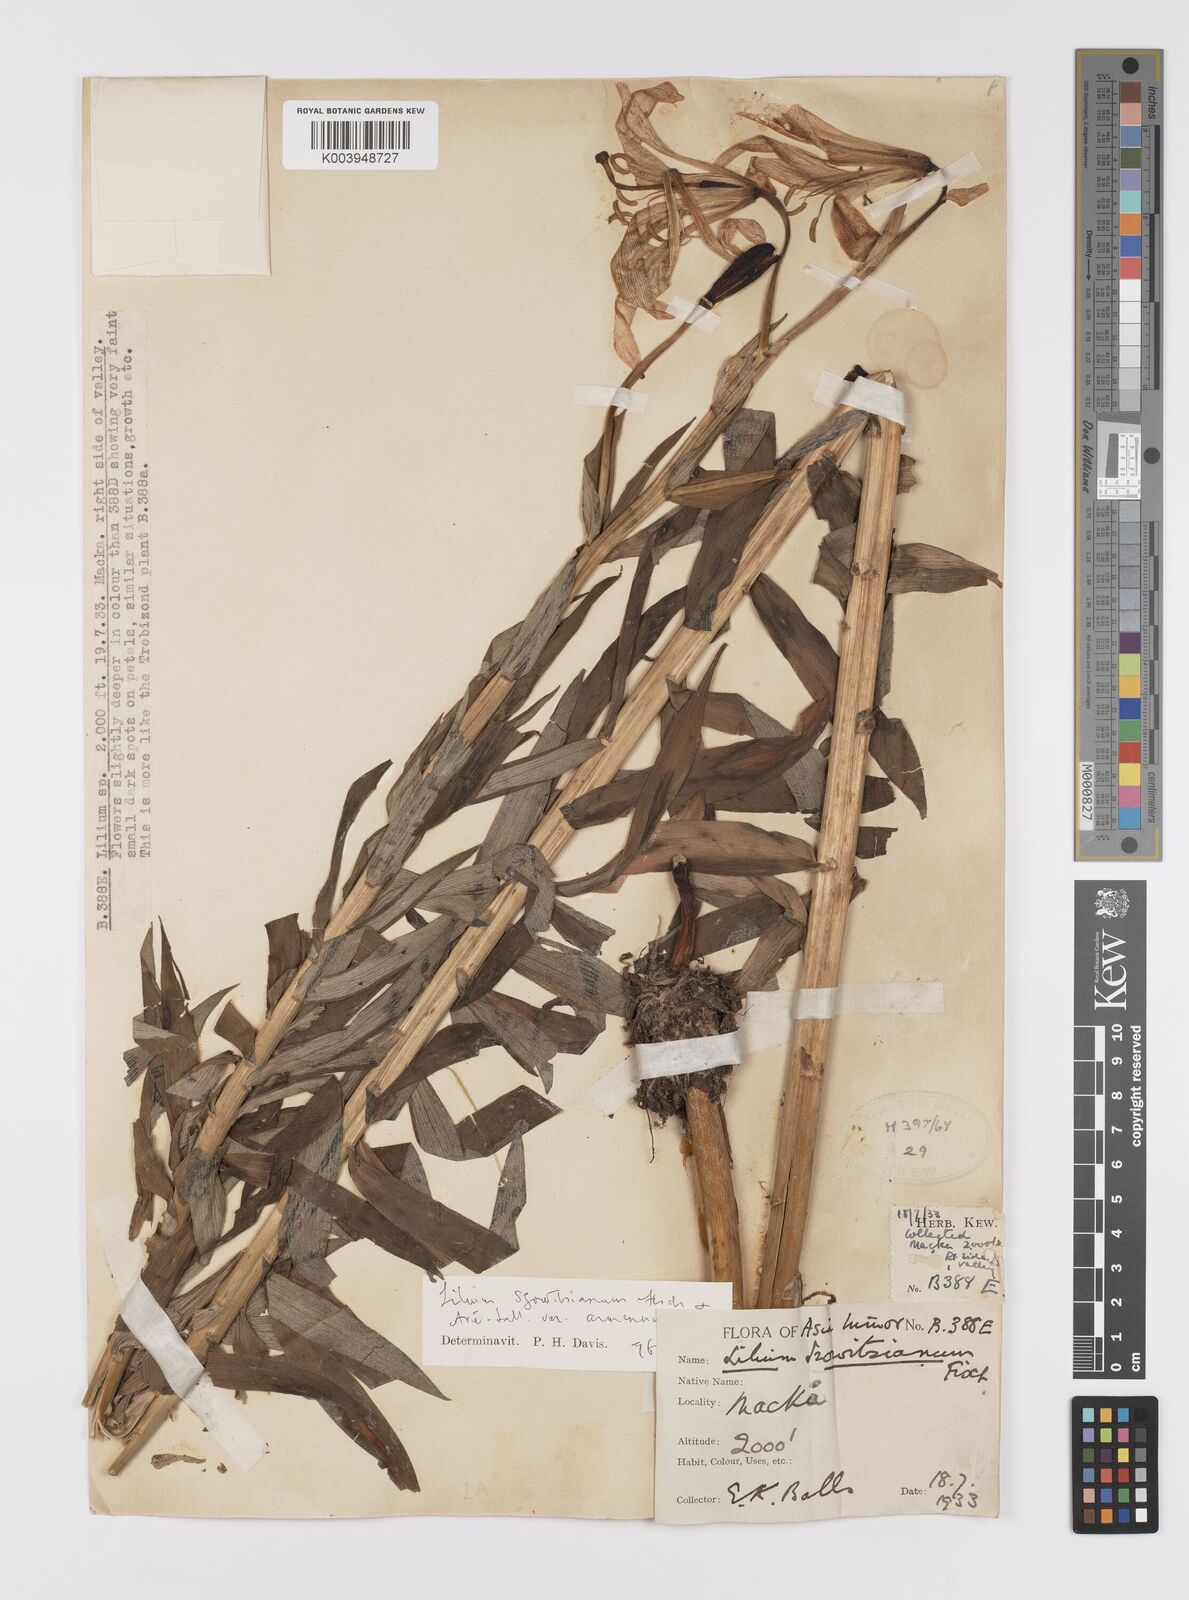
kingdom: Plantae
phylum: Tracheophyta
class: Liliopsida
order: Liliales
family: Liliaceae
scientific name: Liliaceae
